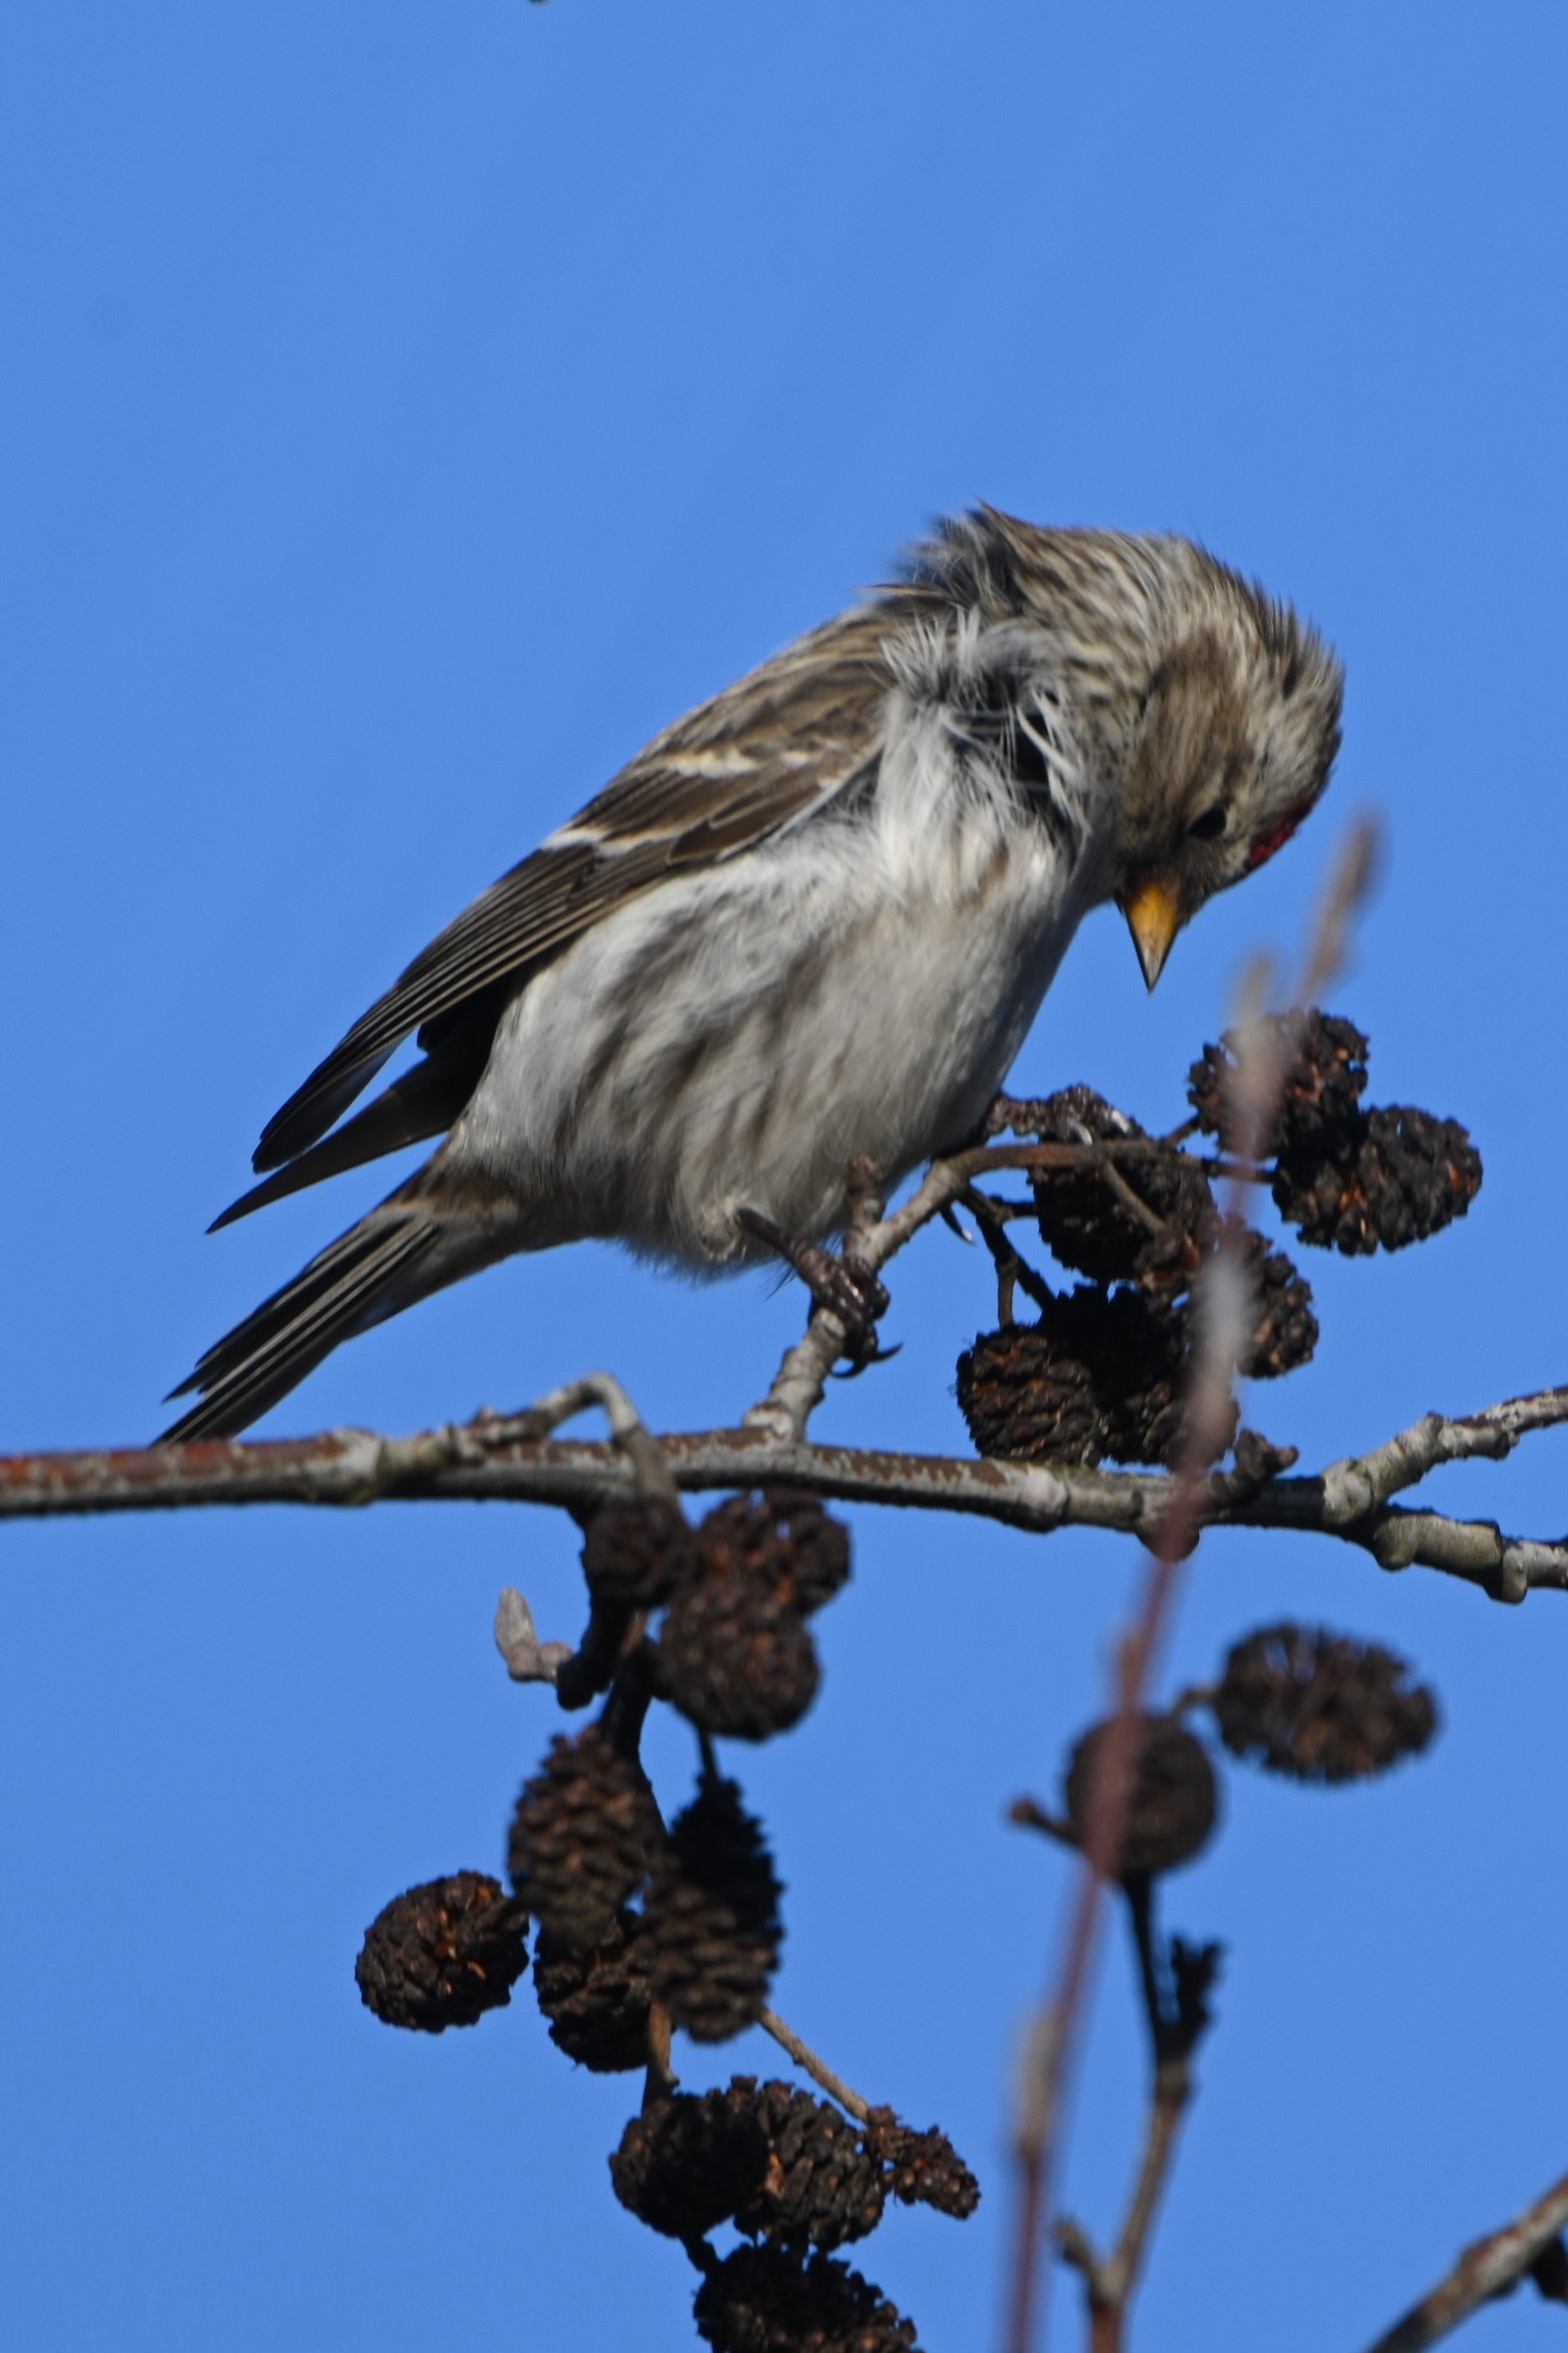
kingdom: Animalia
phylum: Chordata
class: Aves
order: Passeriformes
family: Fringillidae
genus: Acanthis
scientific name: Acanthis flammea
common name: Nordlig gråsisken
